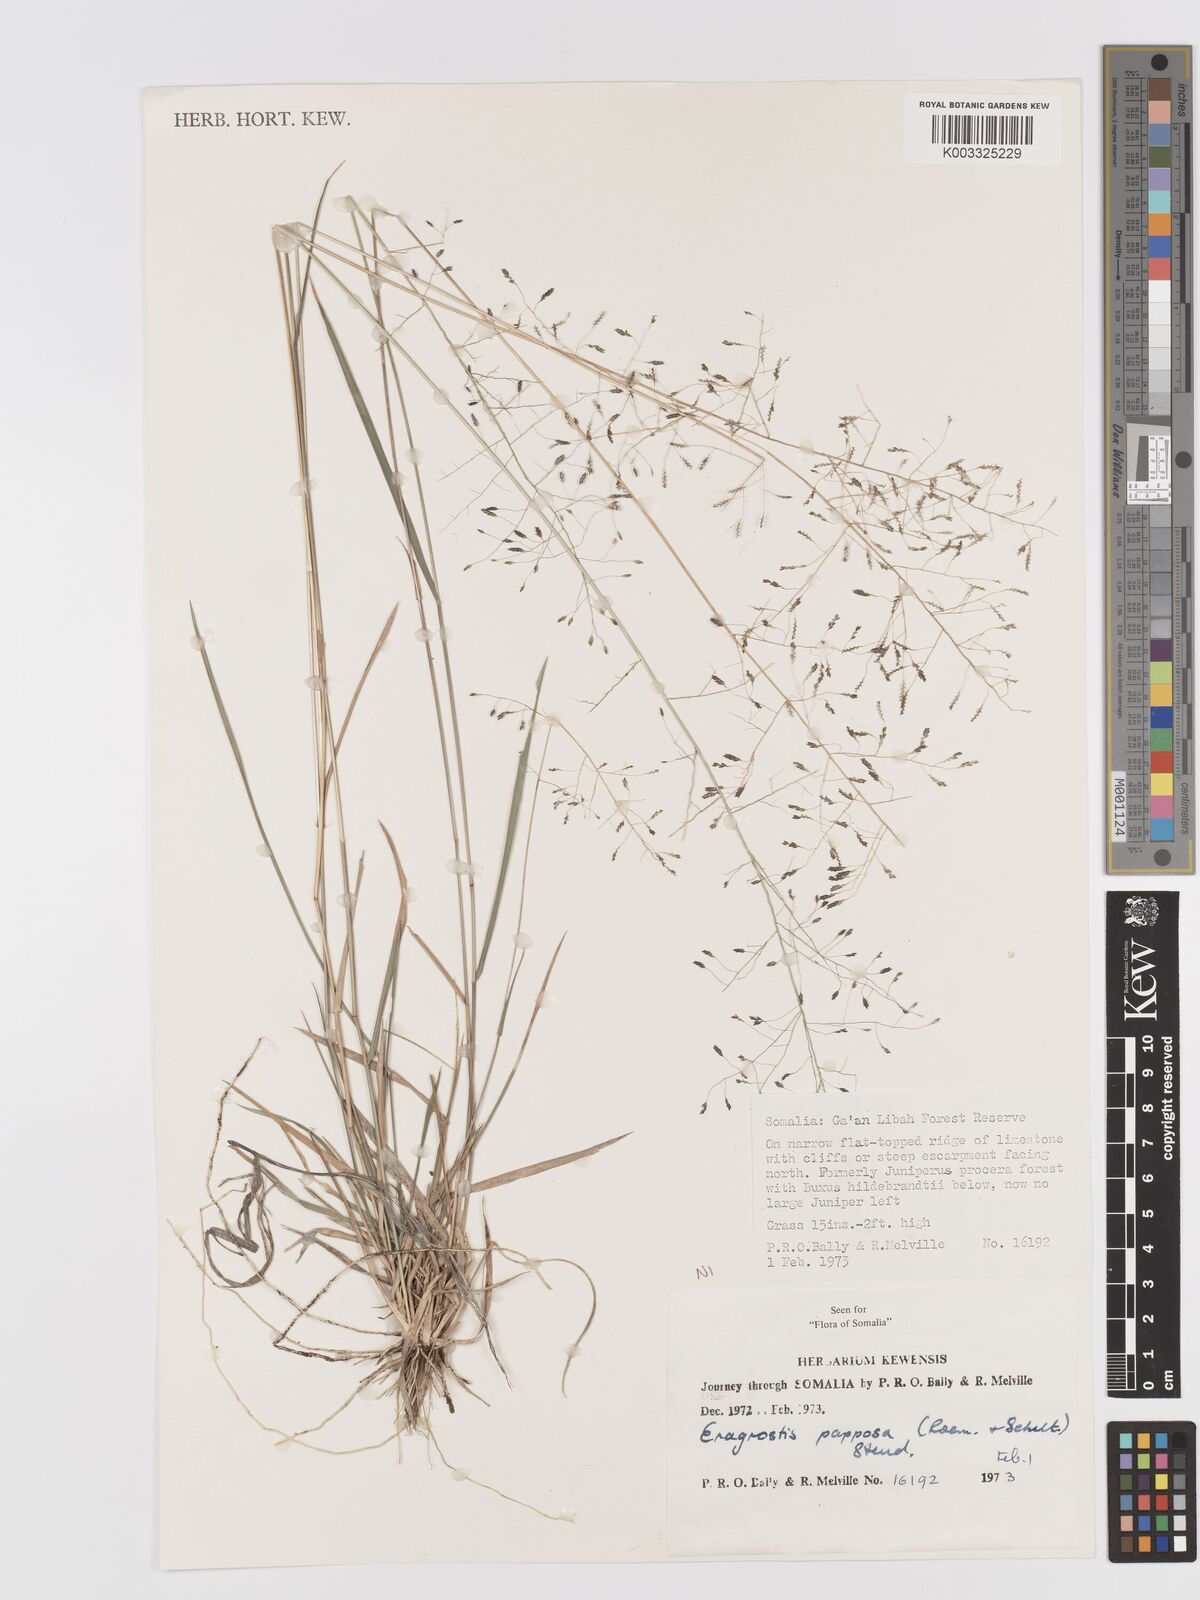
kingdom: Plantae
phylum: Tracheophyta
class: Liliopsida
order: Poales
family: Poaceae
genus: Eragrostis
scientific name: Eragrostis papposa
